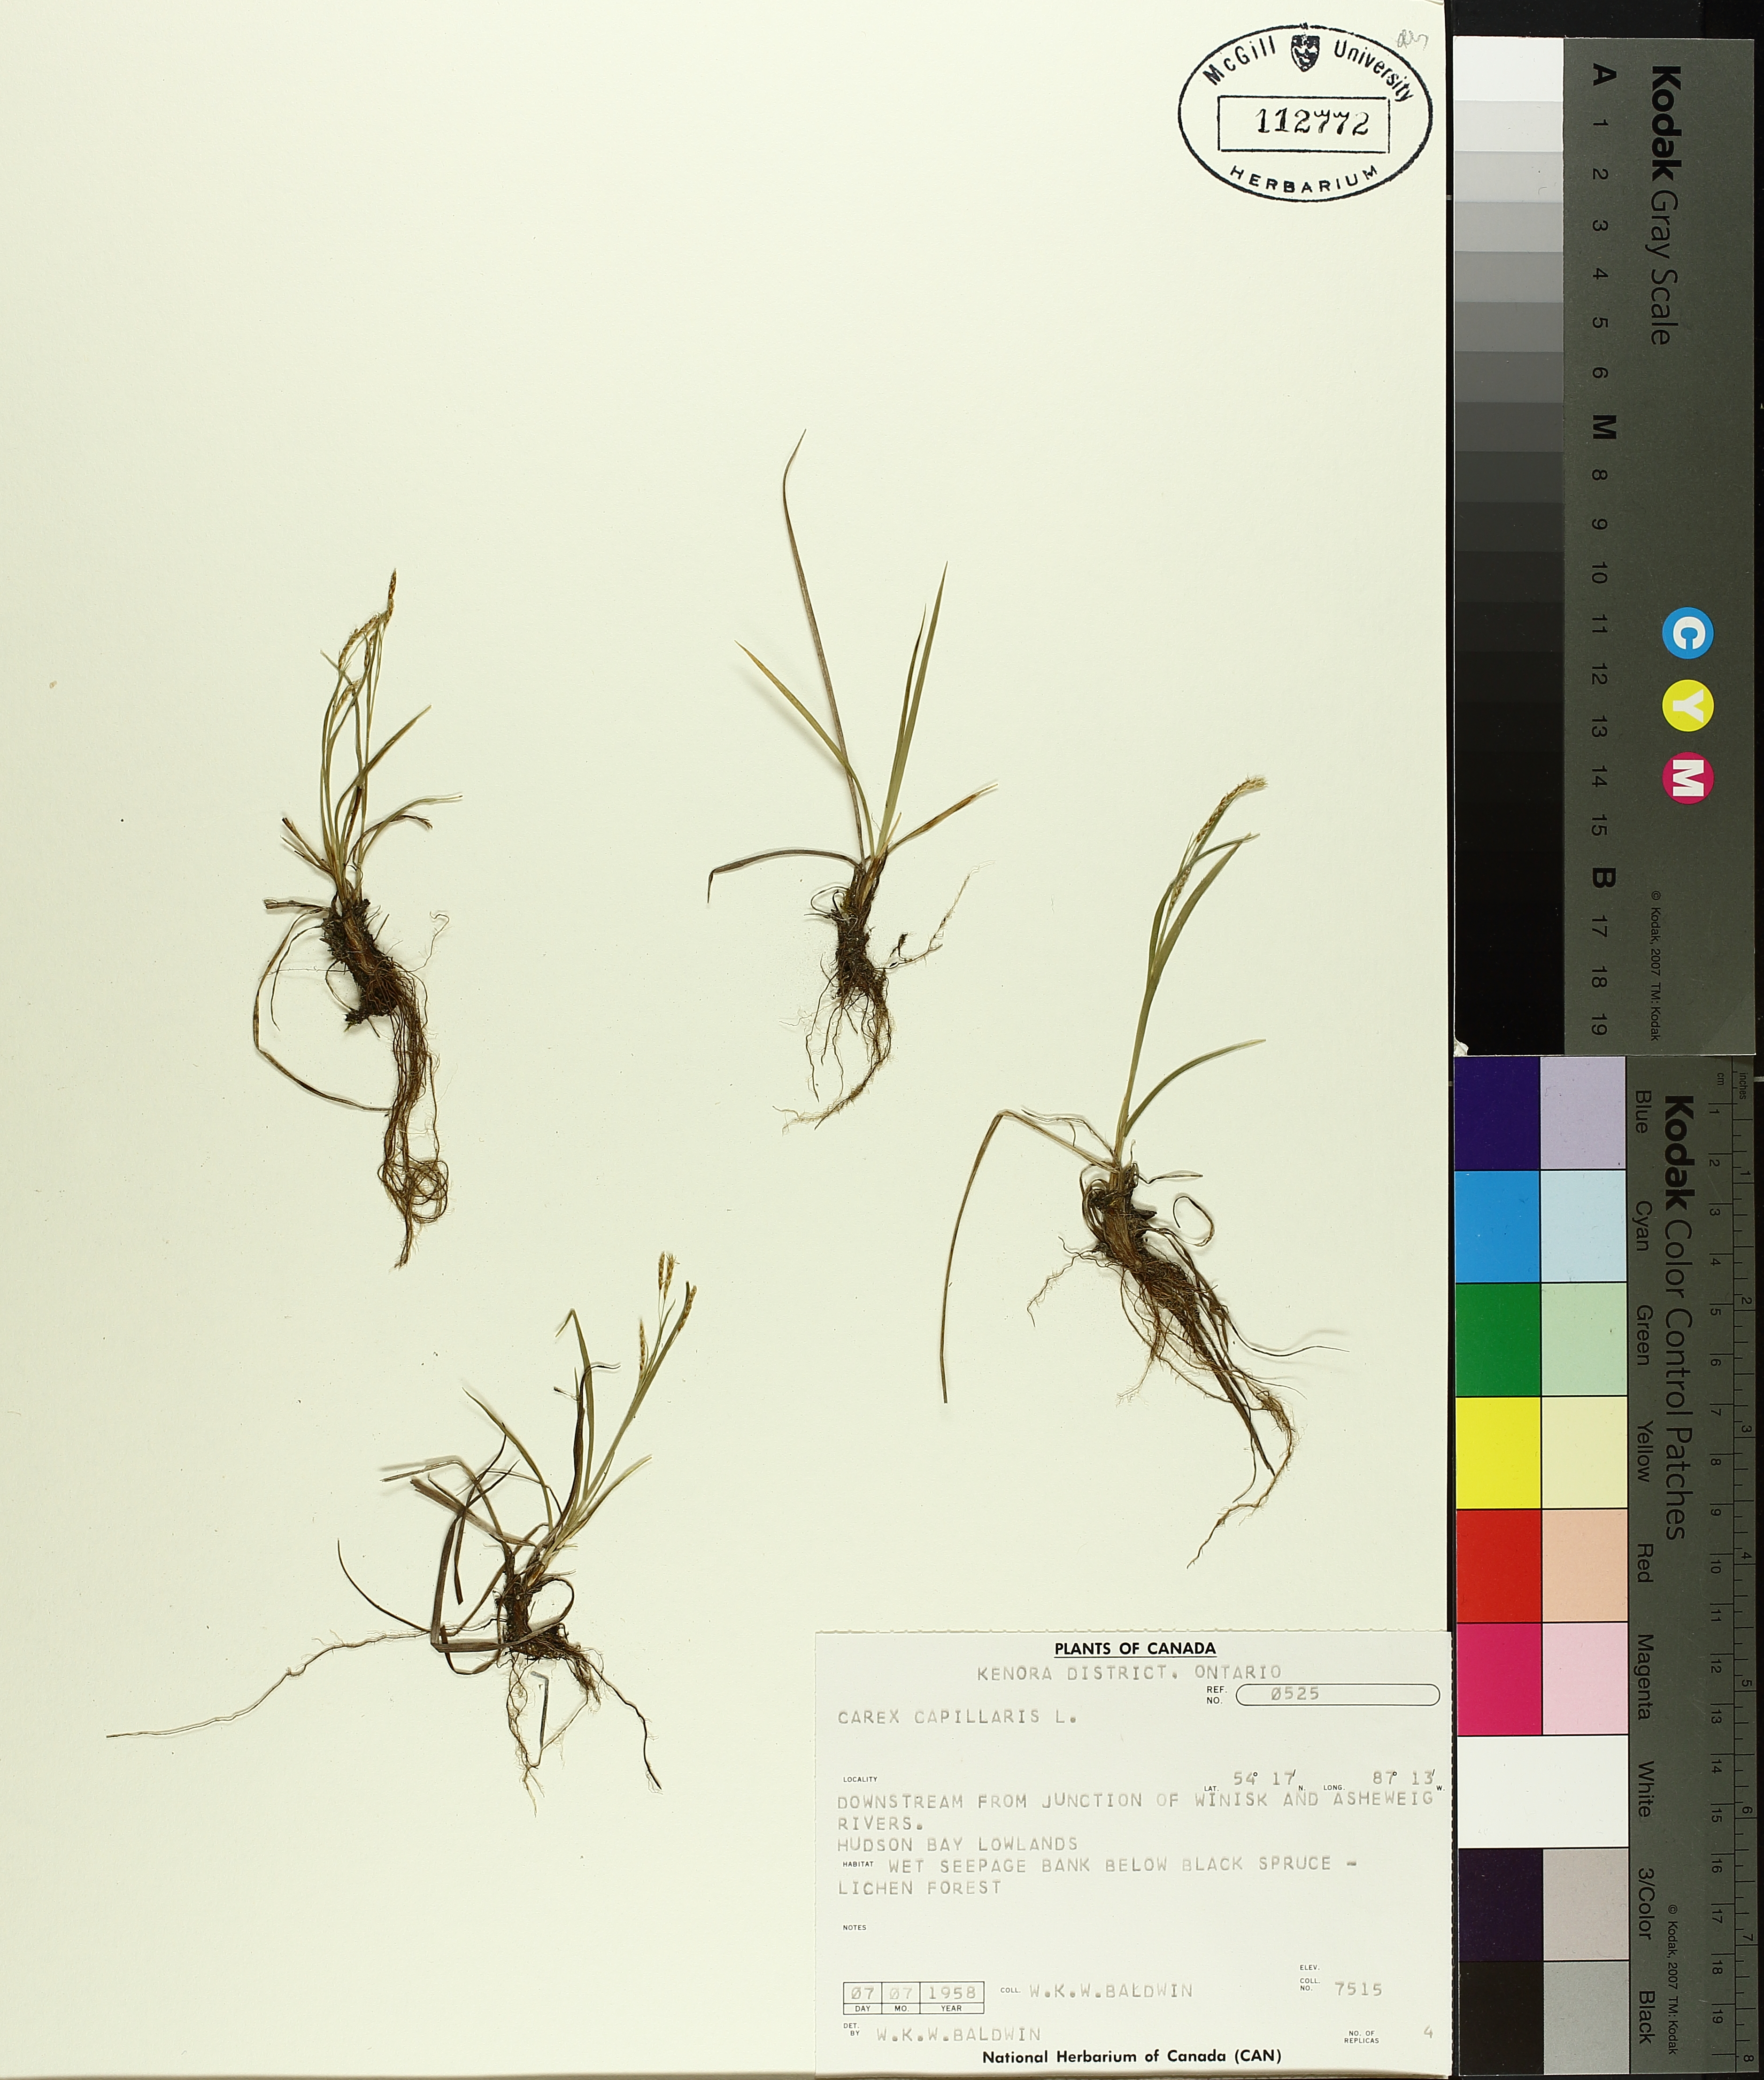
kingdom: Plantae
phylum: Tracheophyta
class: Liliopsida
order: Poales
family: Cyperaceae
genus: Carex
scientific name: Carex capillaris
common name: Hair sedge
